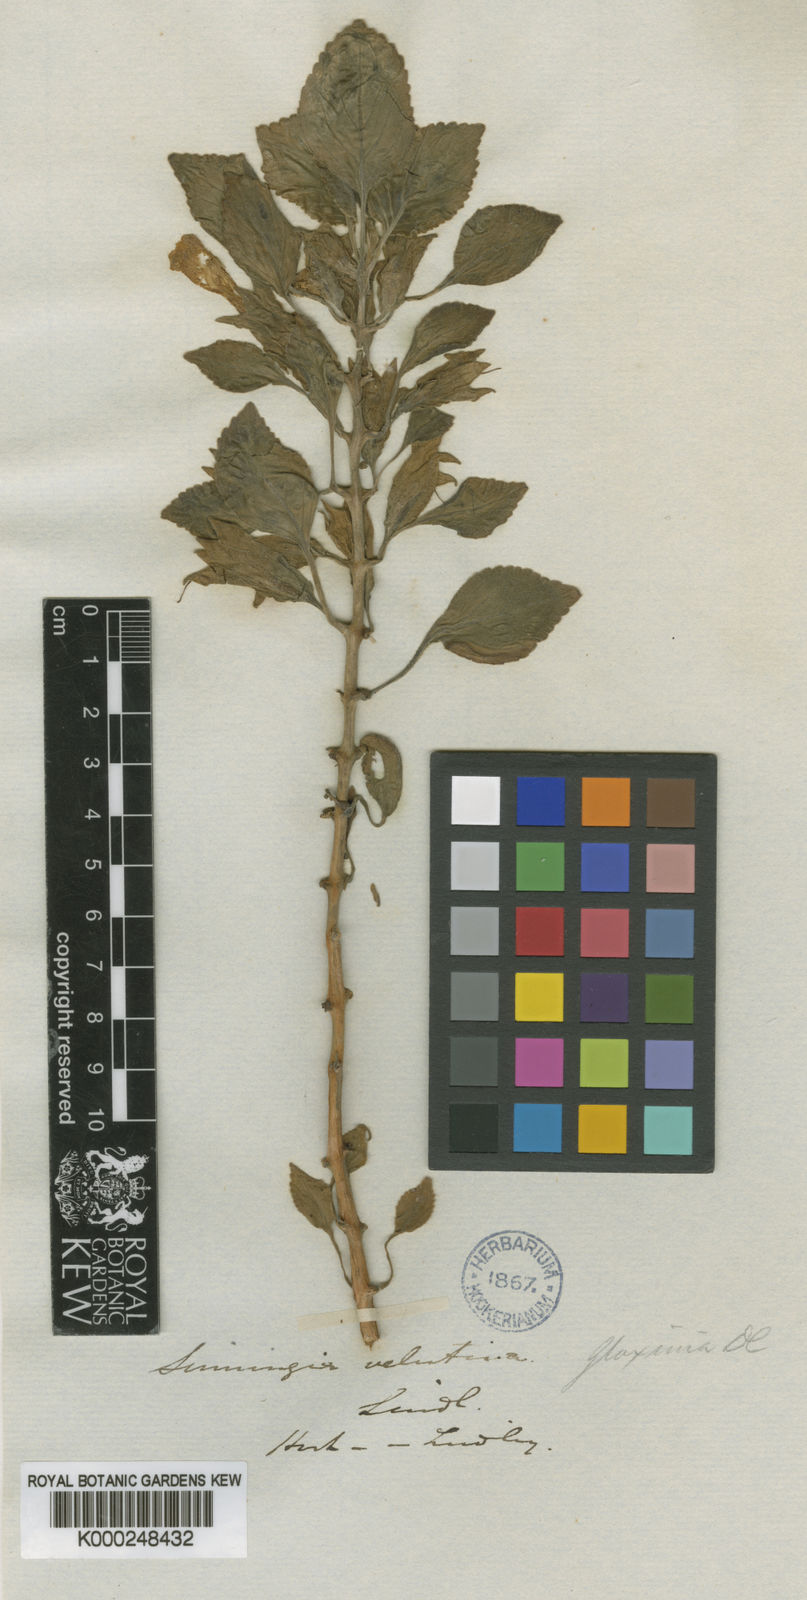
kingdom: Plantae
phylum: Tracheophyta
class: Magnoliopsida
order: Lamiales
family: Gesneriaceae
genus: Sinningia
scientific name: Sinningia velutina
